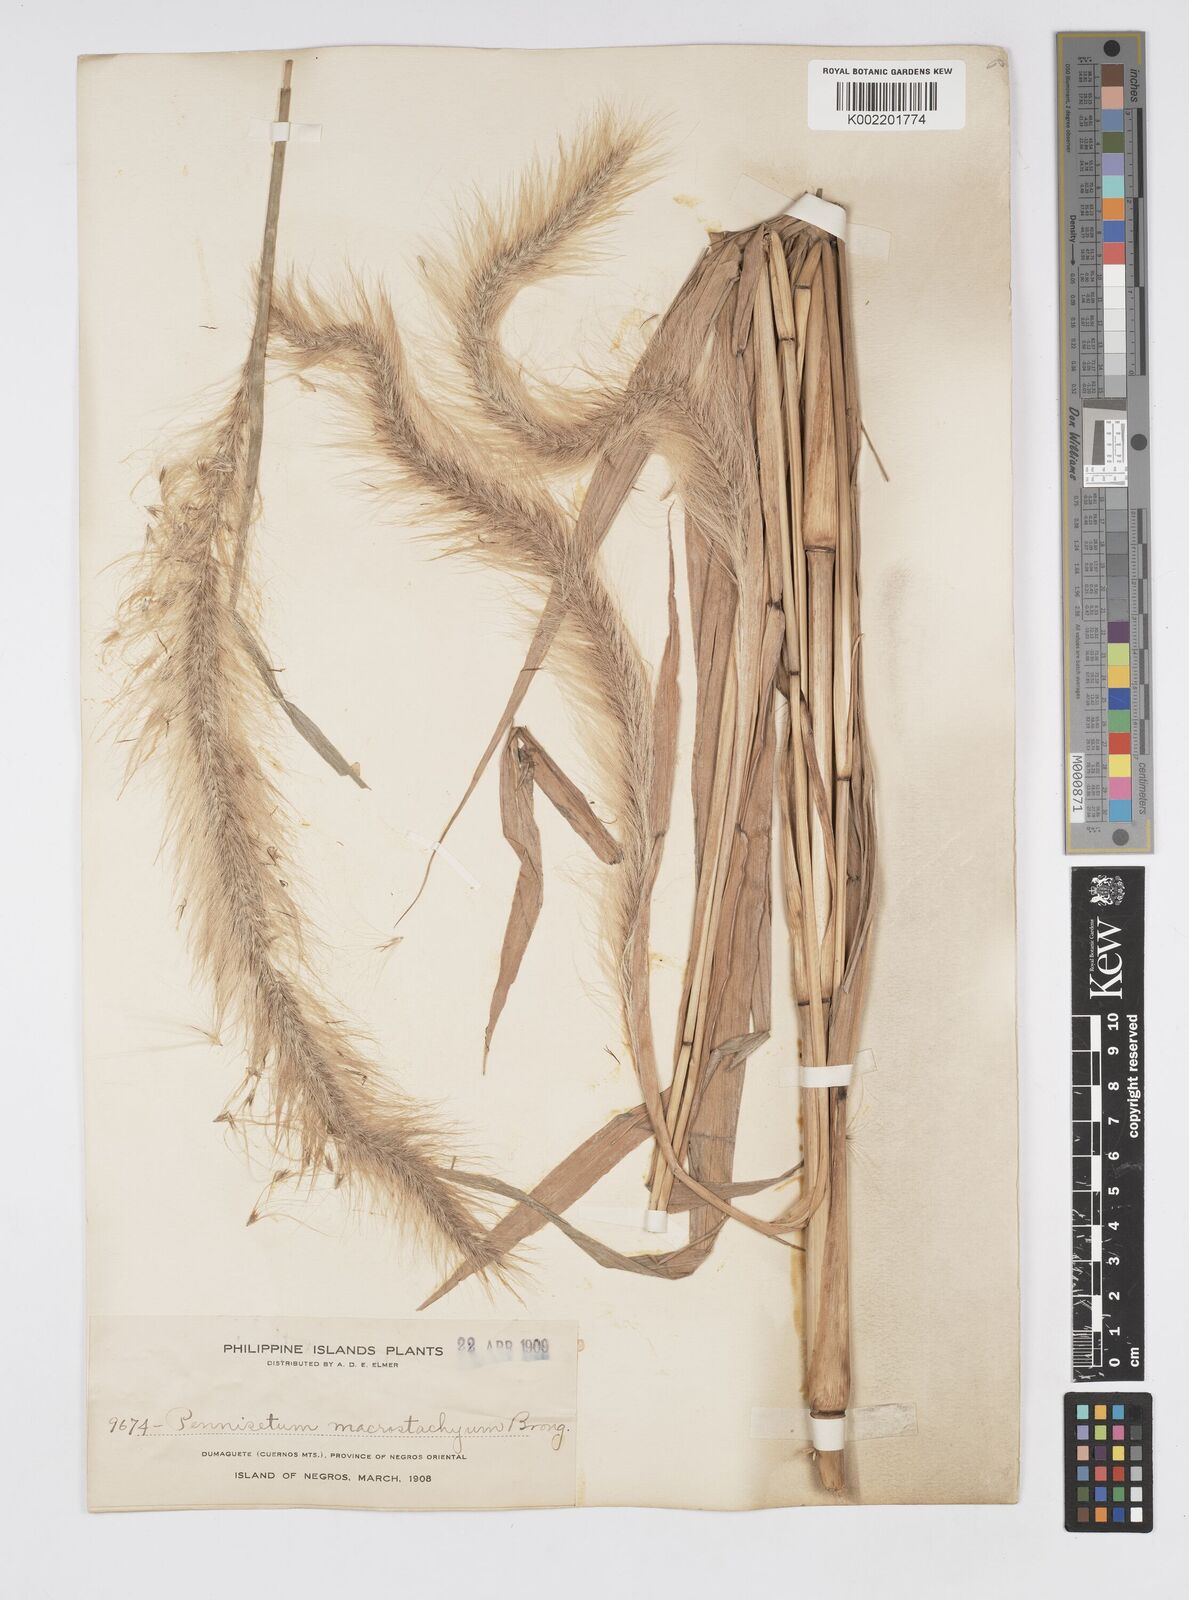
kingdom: Plantae
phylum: Tracheophyta
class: Liliopsida
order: Poales
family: Poaceae
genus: Cenchrus
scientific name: Cenchrus purpureus
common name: Elephant grass
